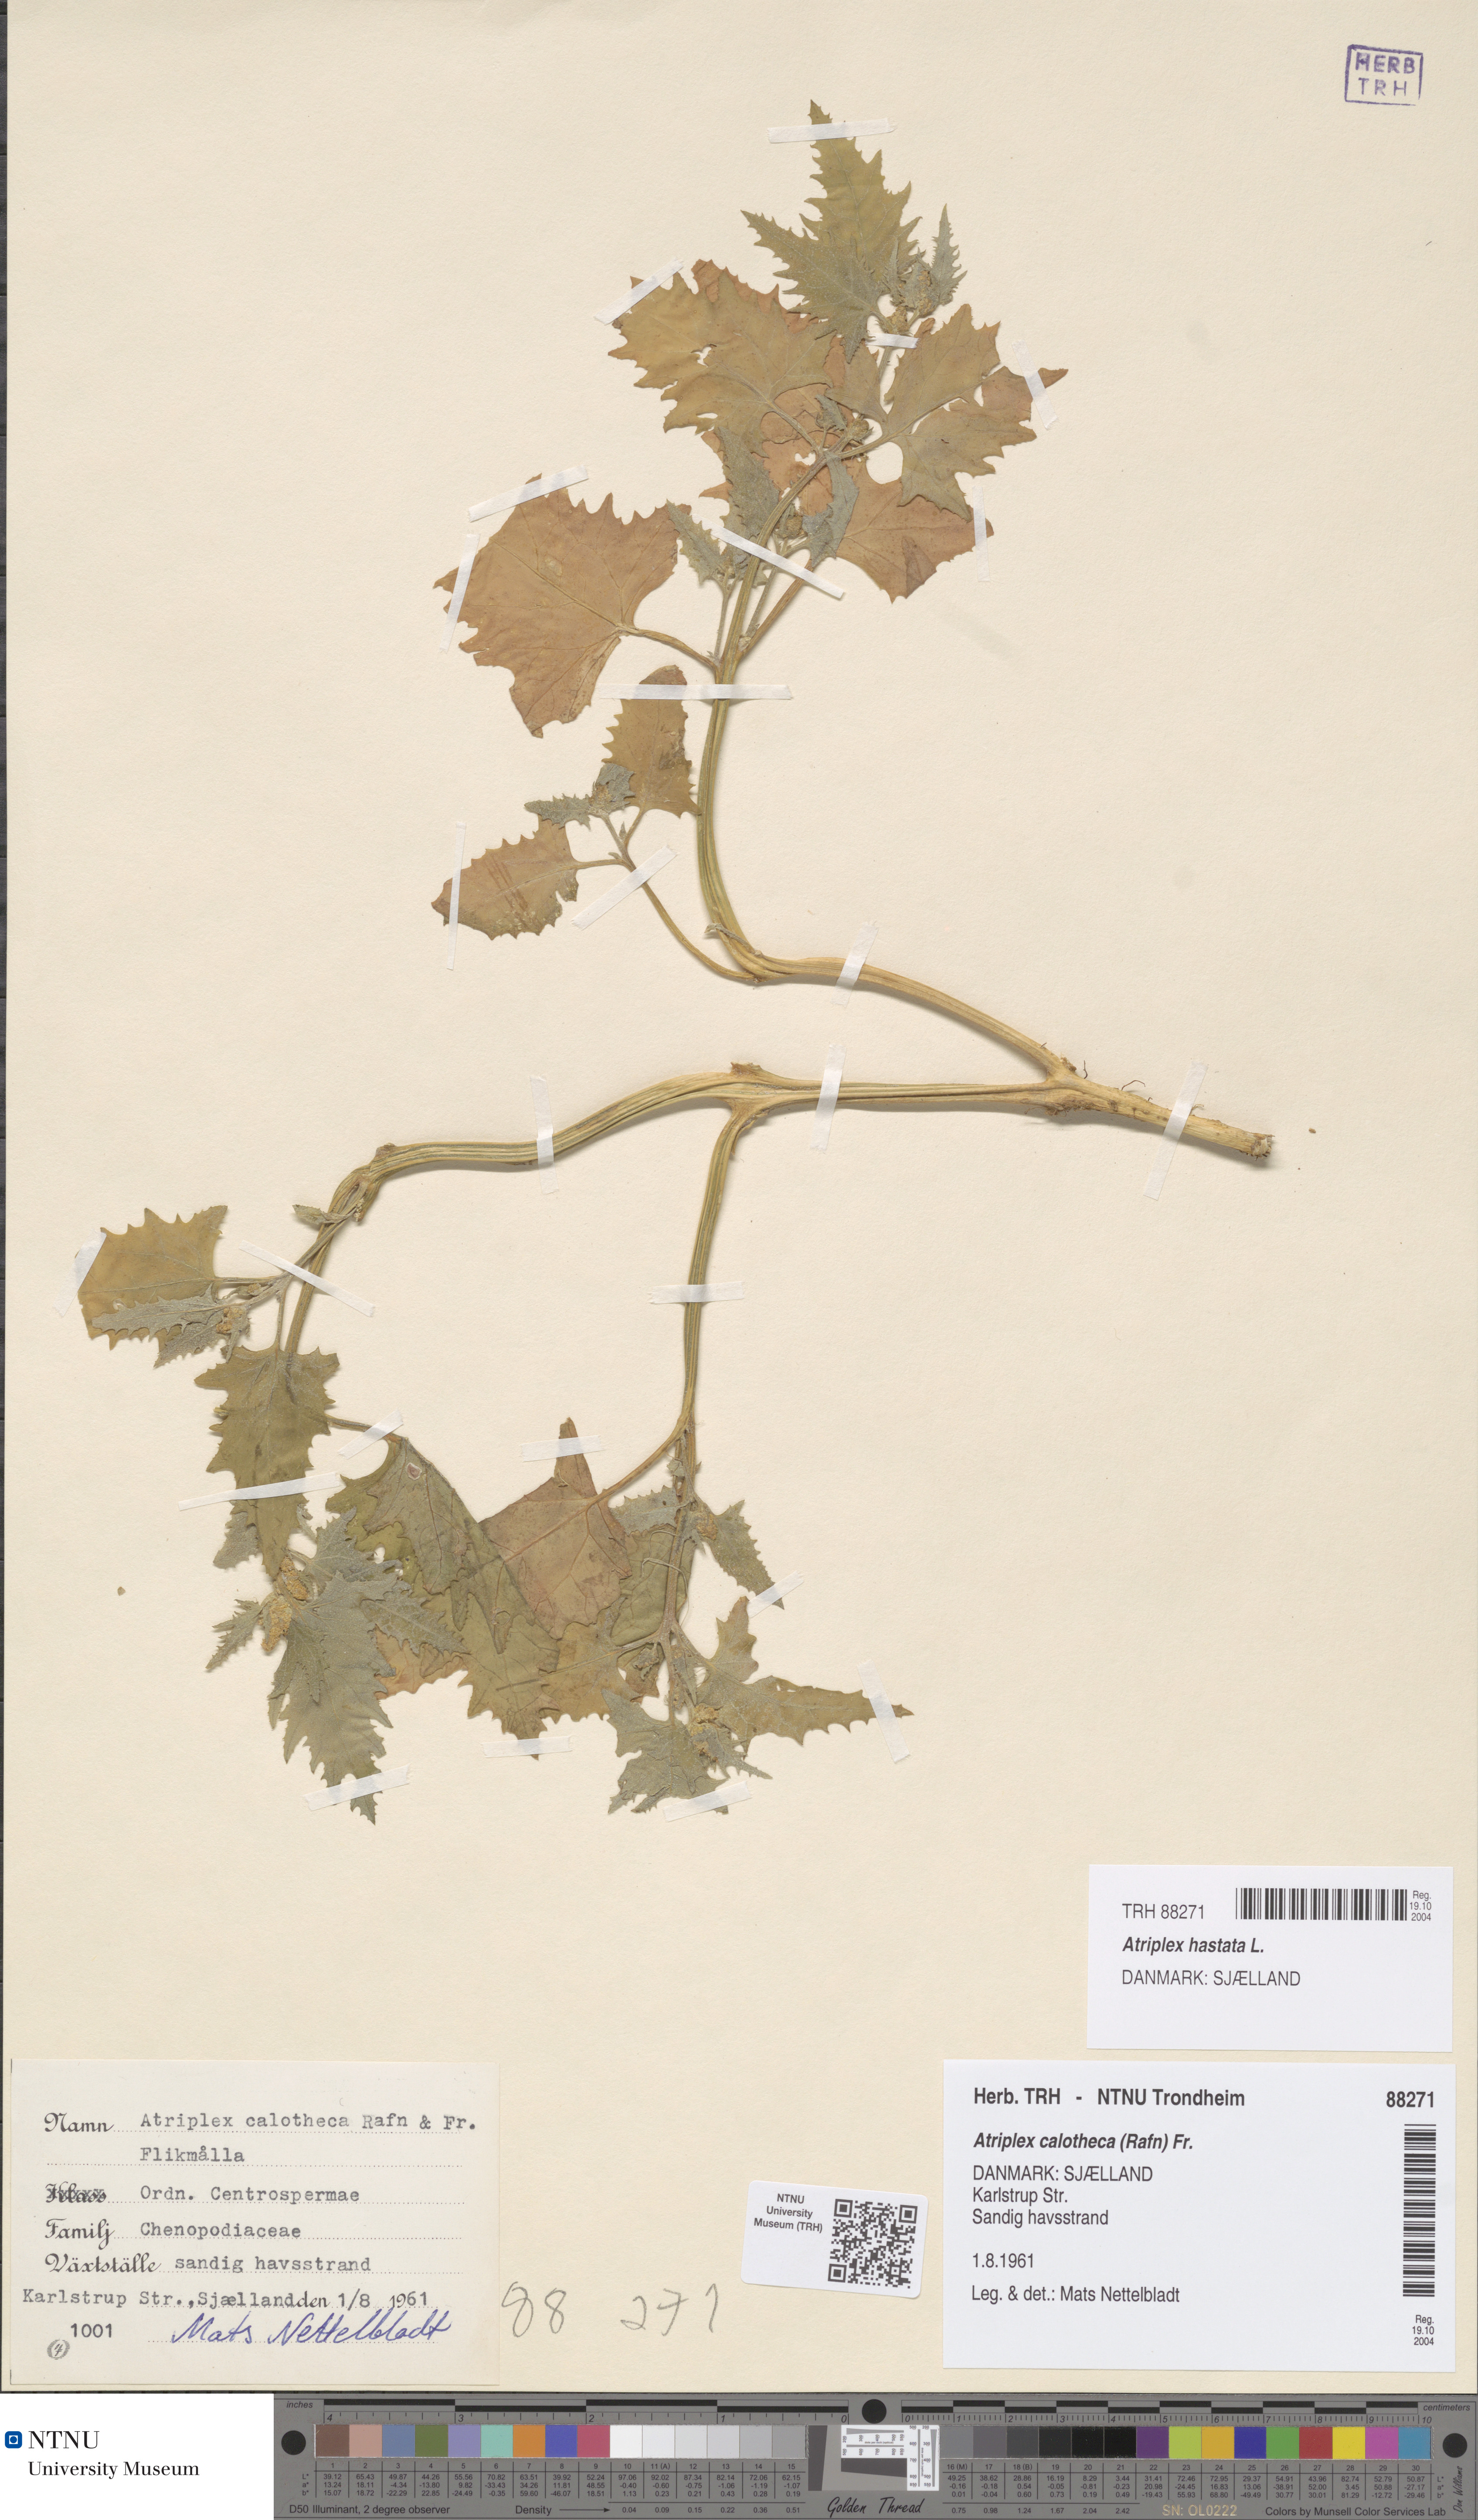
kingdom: Plantae
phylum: Tracheophyta
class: Magnoliopsida
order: Caryophyllales
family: Amaranthaceae
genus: Atriplex
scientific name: Atriplex calotheca
